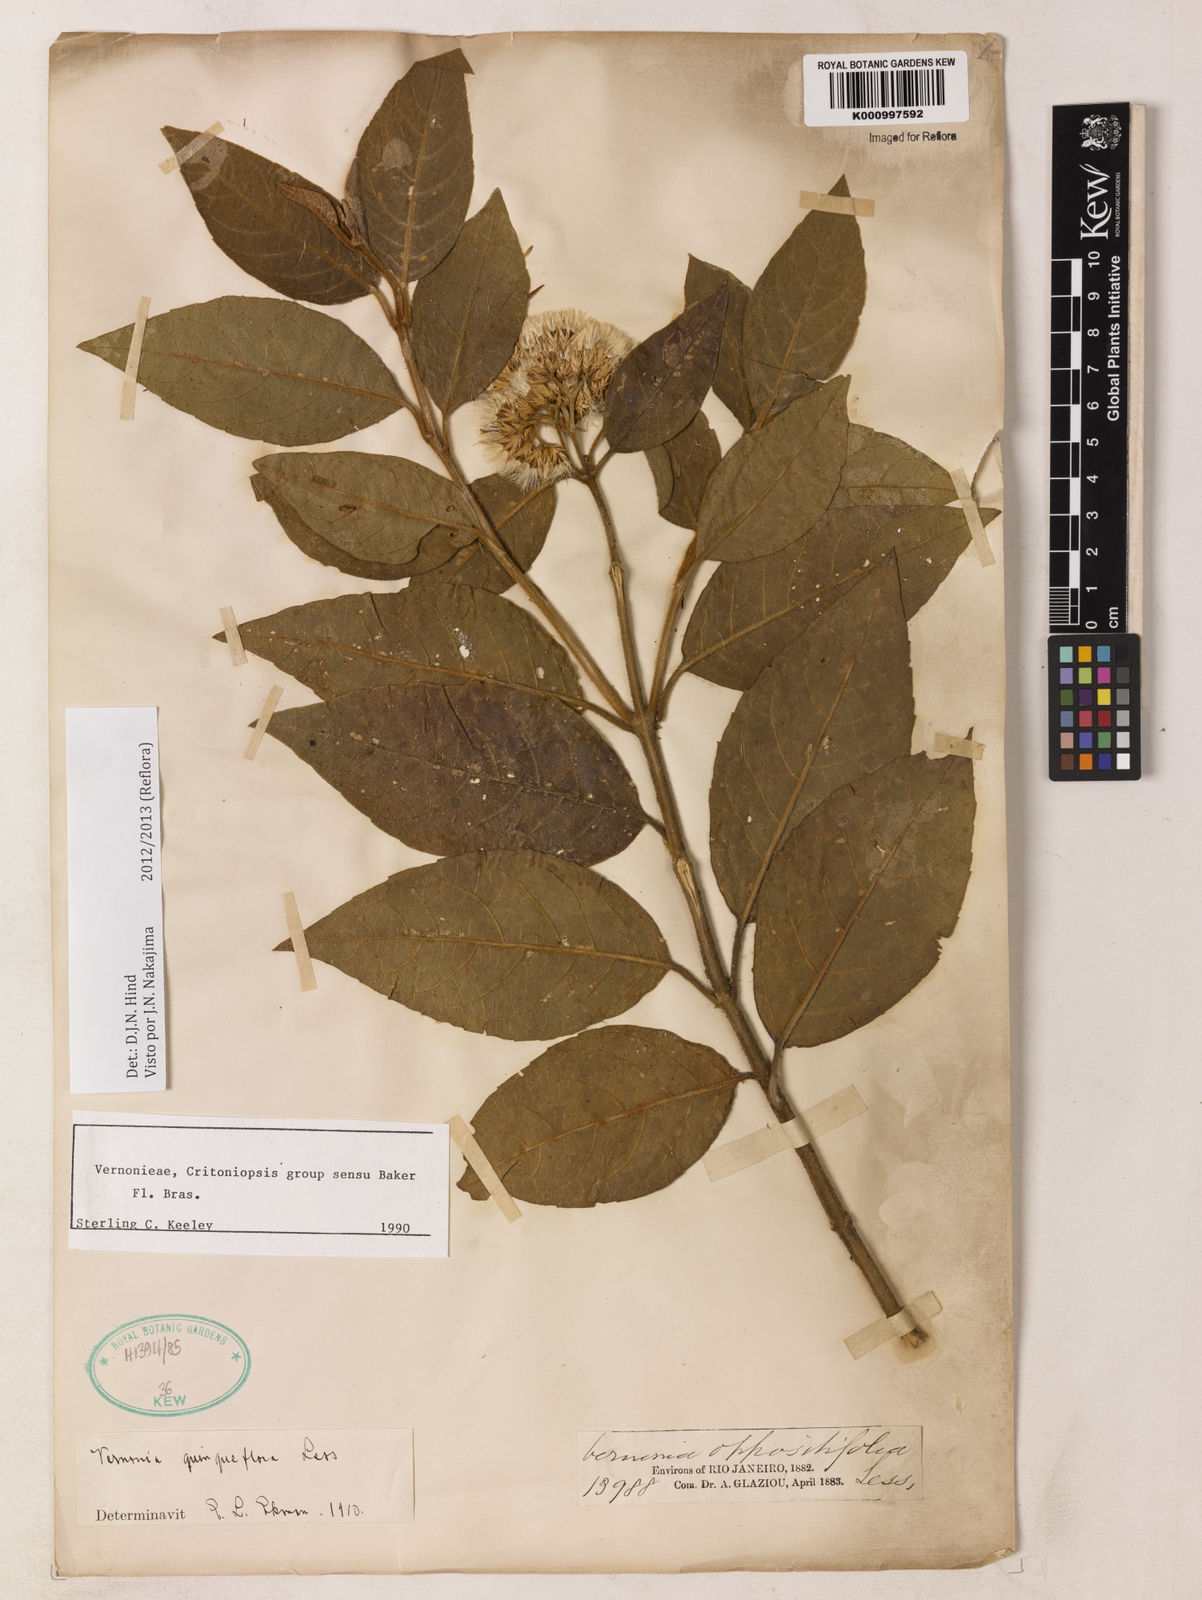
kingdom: Plantae
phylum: Tracheophyta
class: Magnoliopsida
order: Asterales
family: Asteraceae
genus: Critoniopsis
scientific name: Critoniopsis stellata
